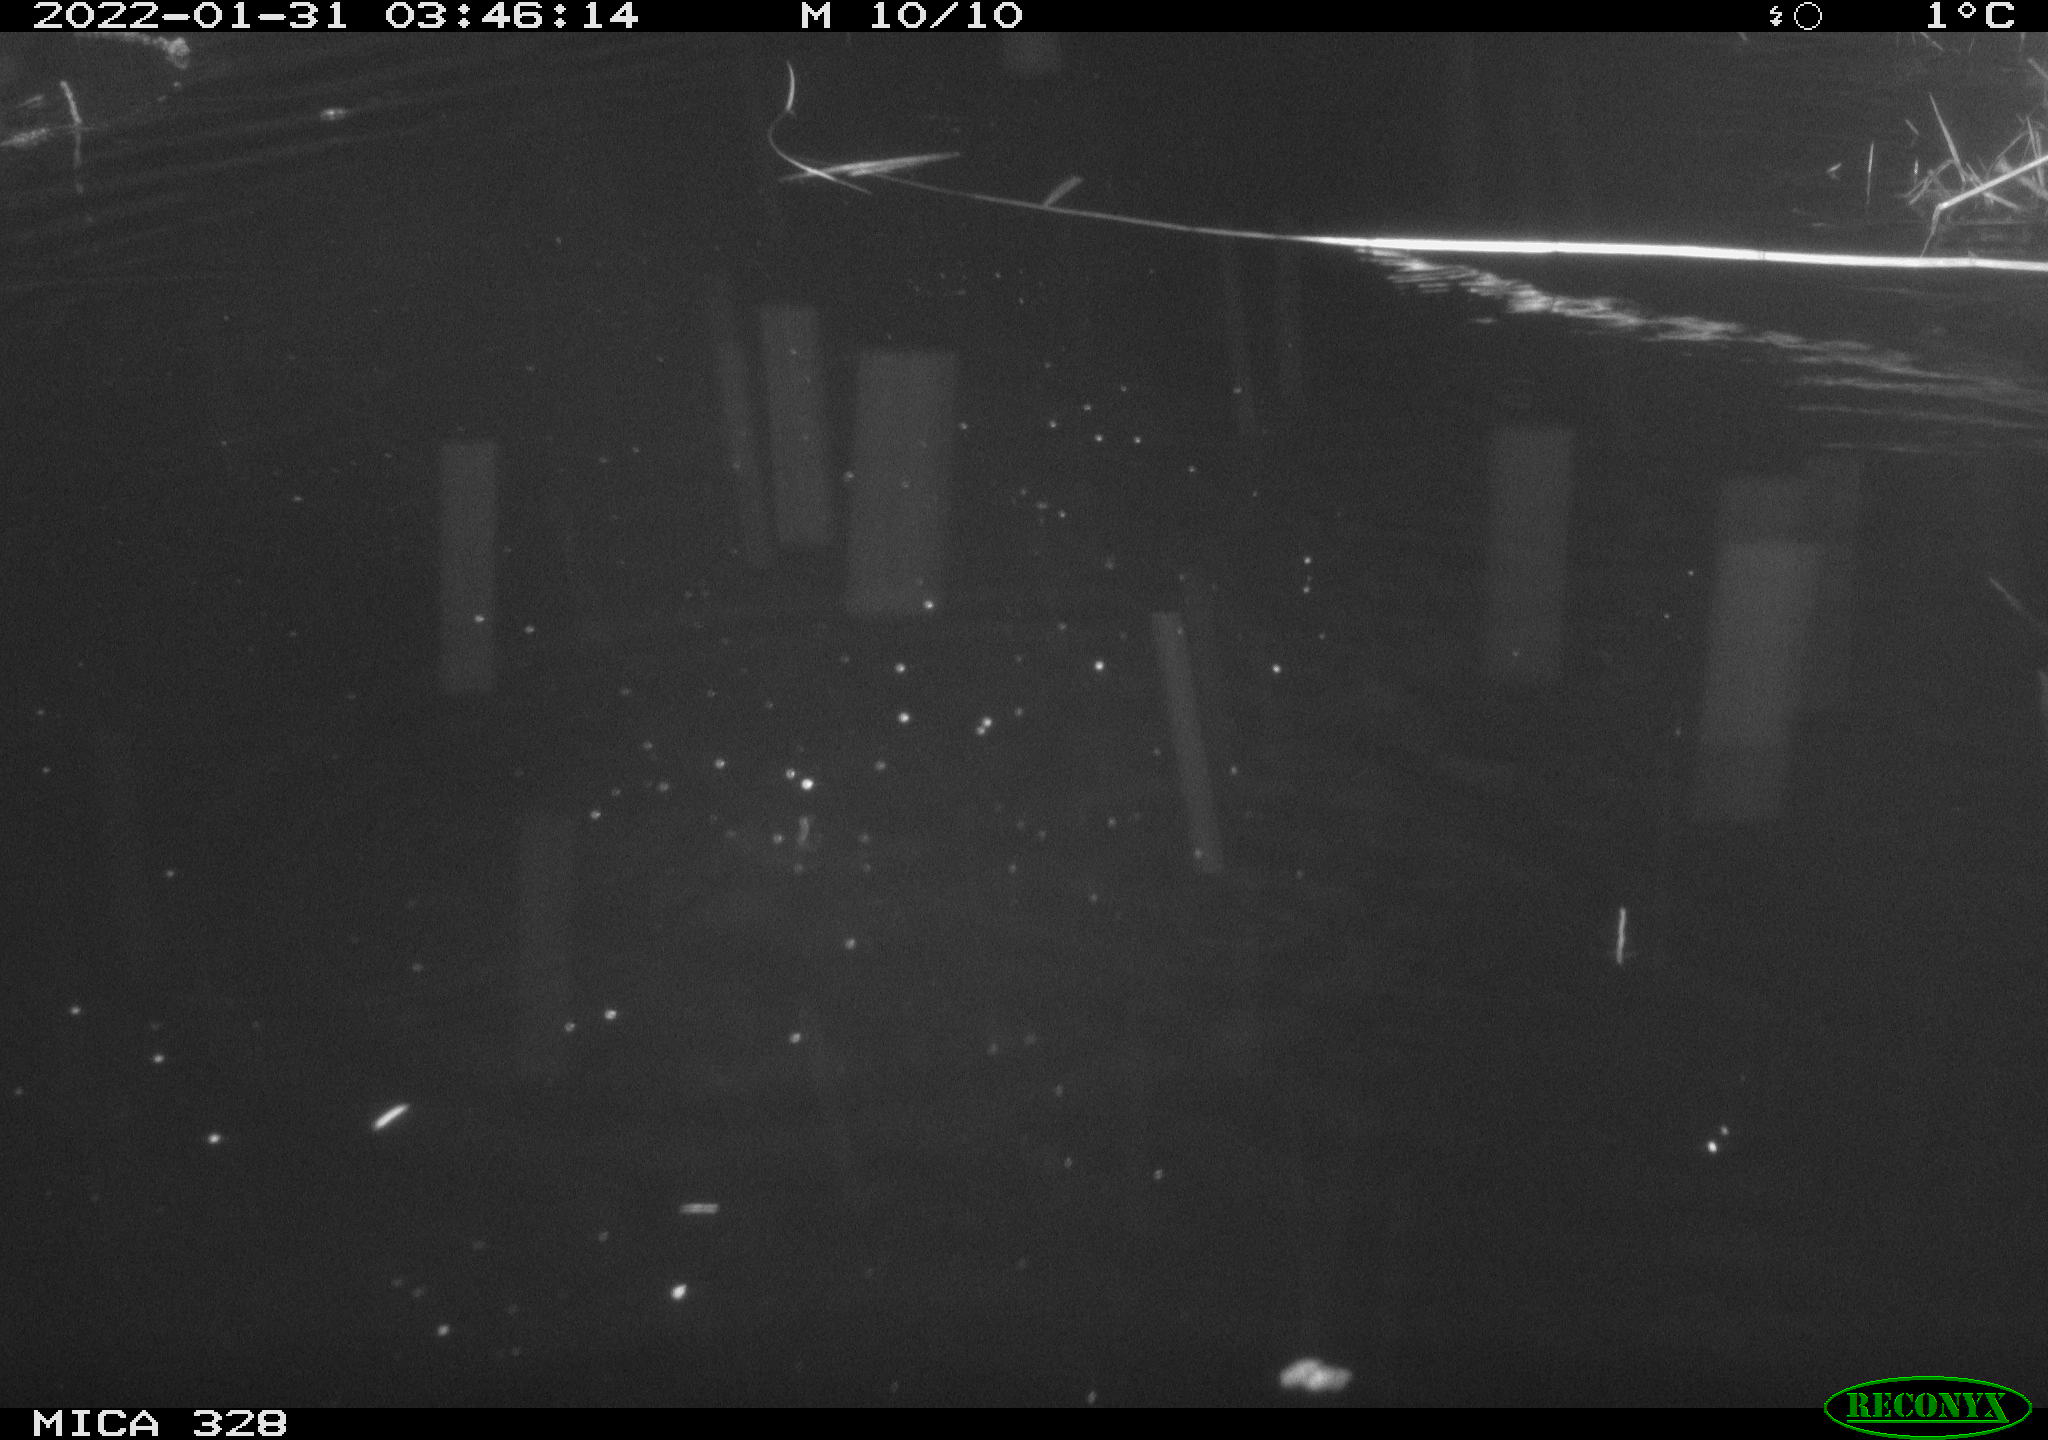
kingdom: Animalia
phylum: Chordata
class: Mammalia
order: Rodentia
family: Cricetidae
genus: Ondatra
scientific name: Ondatra zibethicus
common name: Muskrat
